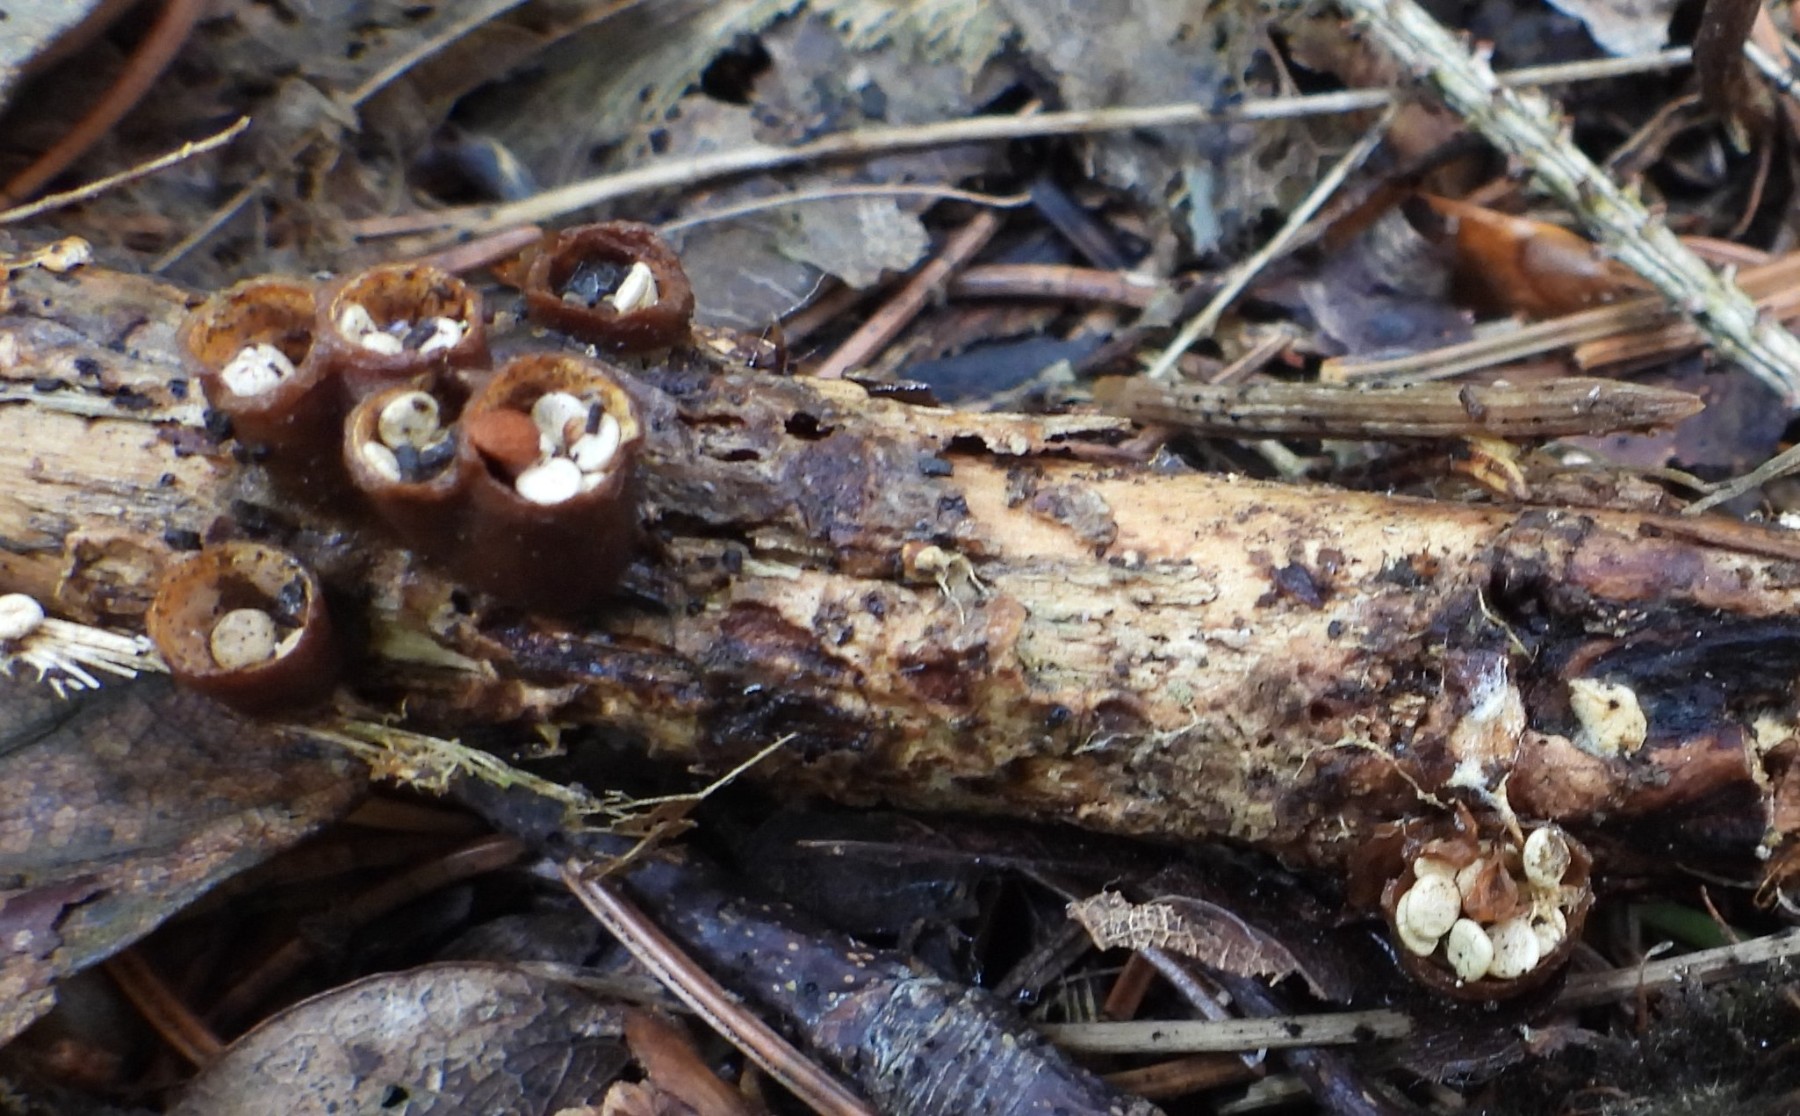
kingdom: Fungi
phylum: Basidiomycota
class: Agaricomycetes
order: Agaricales
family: Nidulariaceae
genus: Crucibulum
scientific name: Crucibulum crucibuliforme
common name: krukkesvamp
